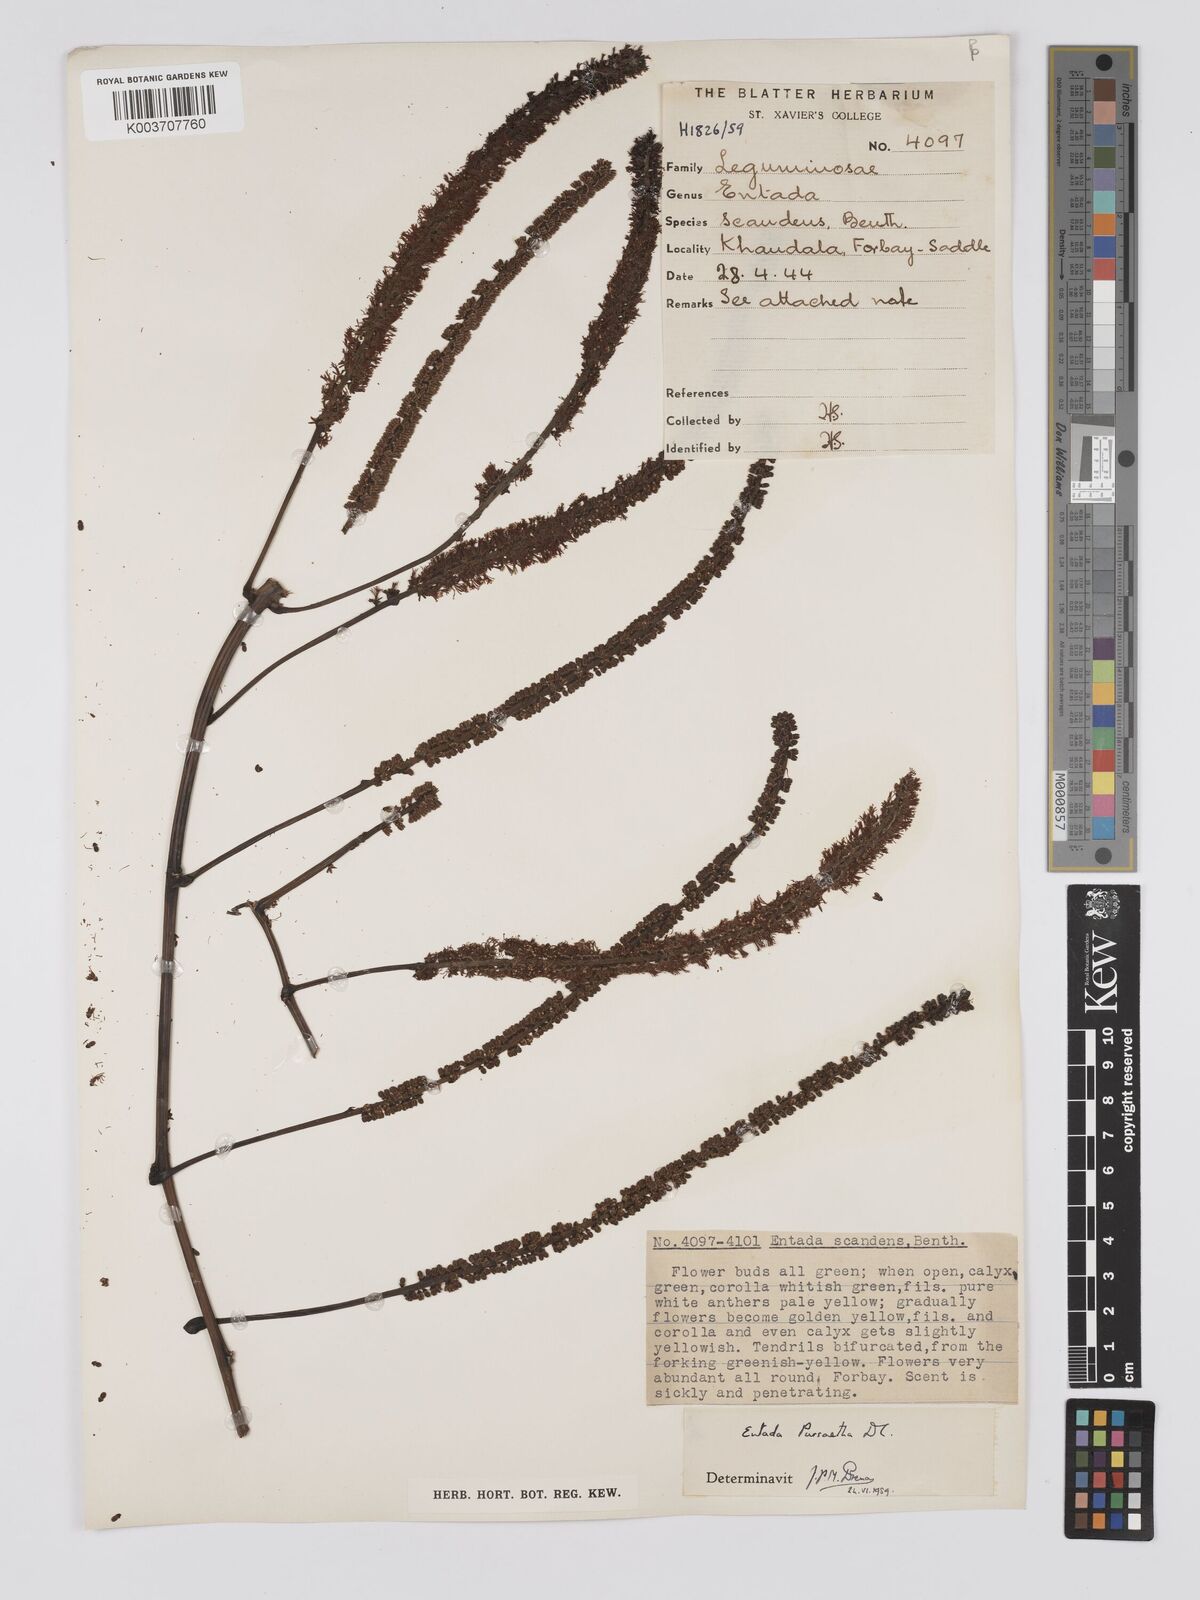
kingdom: Plantae
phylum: Tracheophyta
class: Magnoliopsida
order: Fabales
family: Fabaceae
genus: Entada
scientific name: Entada rheedei
